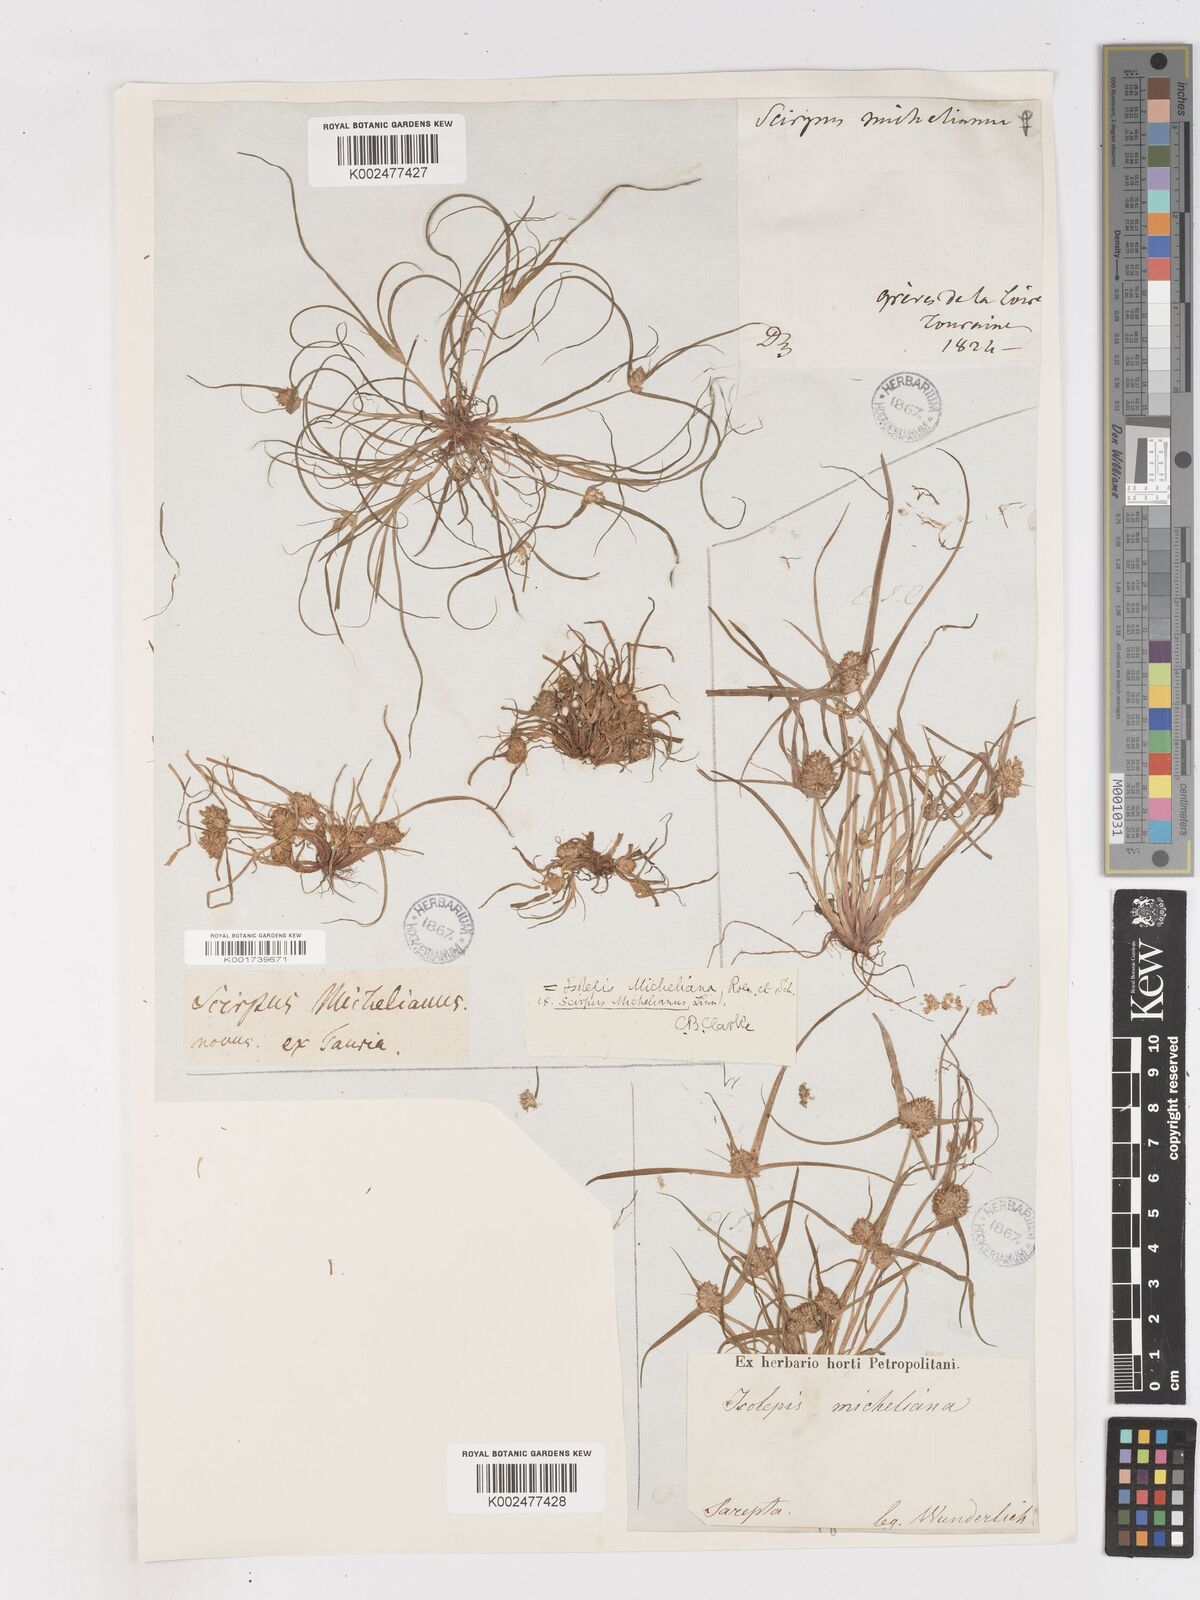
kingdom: Plantae
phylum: Tracheophyta
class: Liliopsida
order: Poales
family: Cyperaceae
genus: Cyperus
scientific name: Cyperus michelianus
